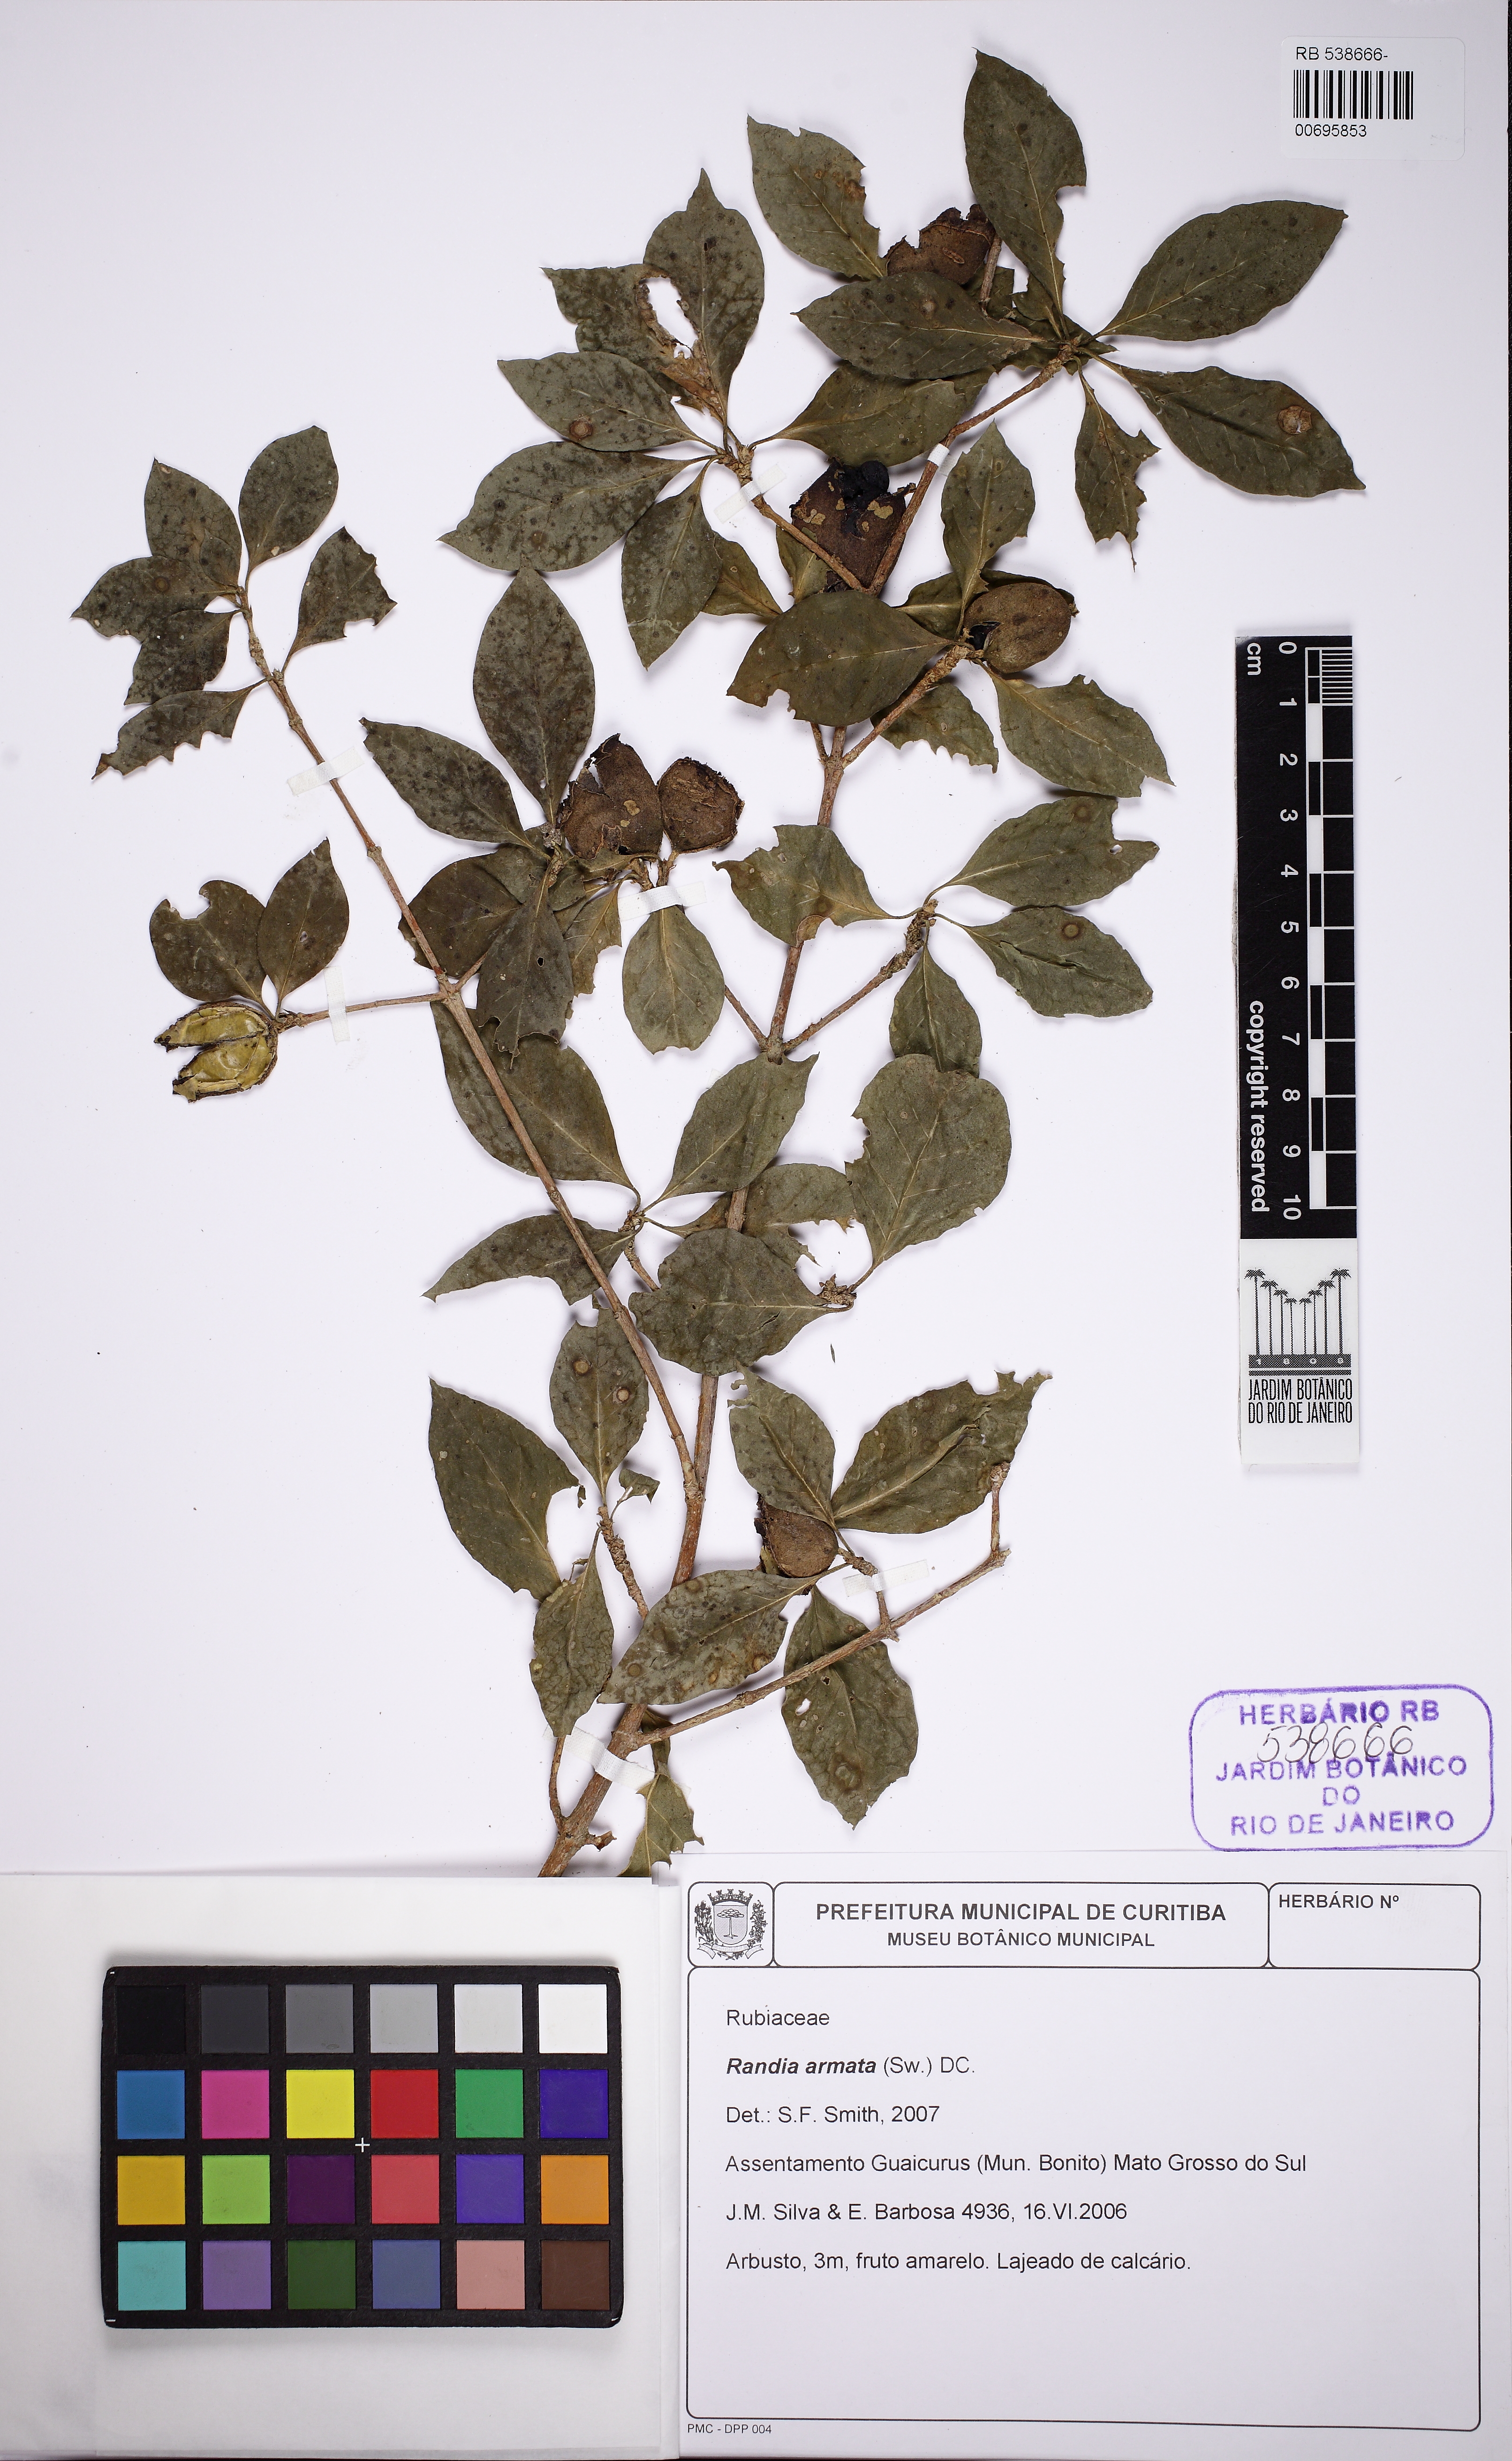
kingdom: Plantae
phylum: Tracheophyta
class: Magnoliopsida
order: Gentianales
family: Rubiaceae
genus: Randia
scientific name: Randia armata
